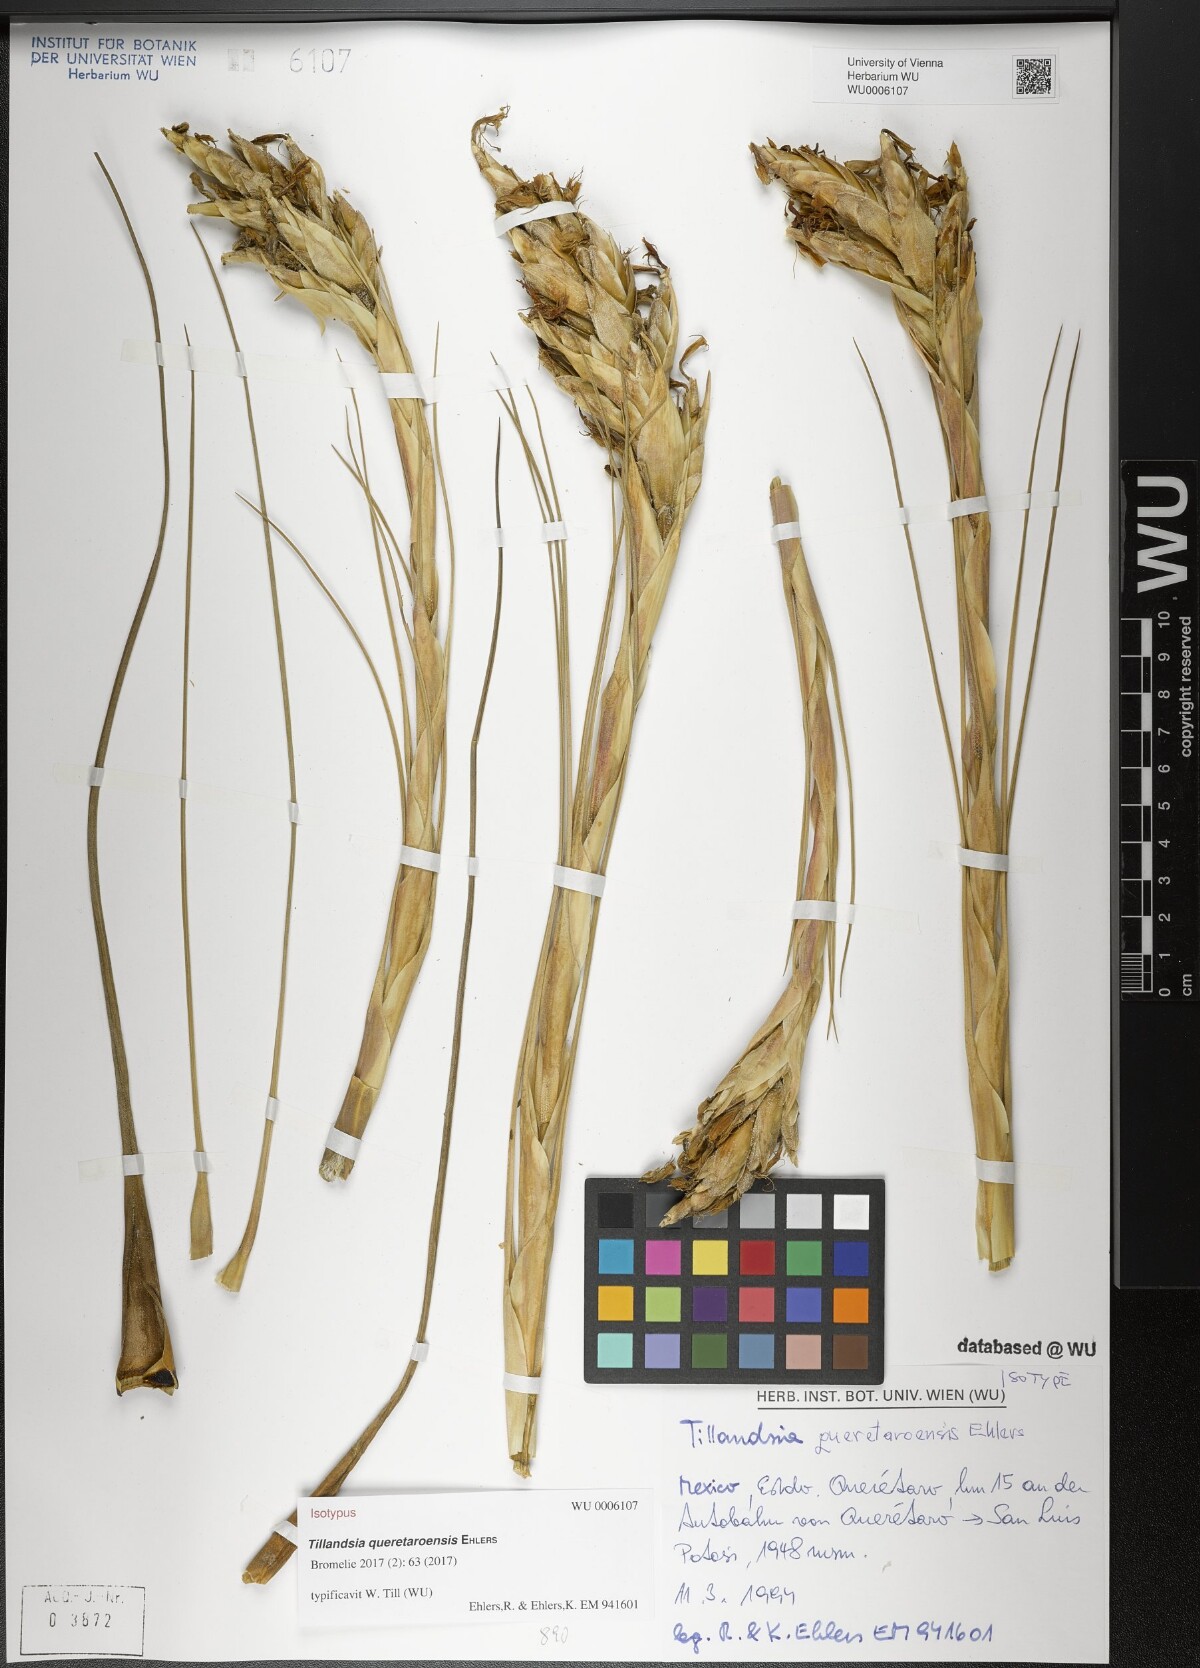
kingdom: Plantae
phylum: Tracheophyta
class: Liliopsida
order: Poales
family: Bromeliaceae
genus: Tillandsia
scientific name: Tillandsia queretaroensis
